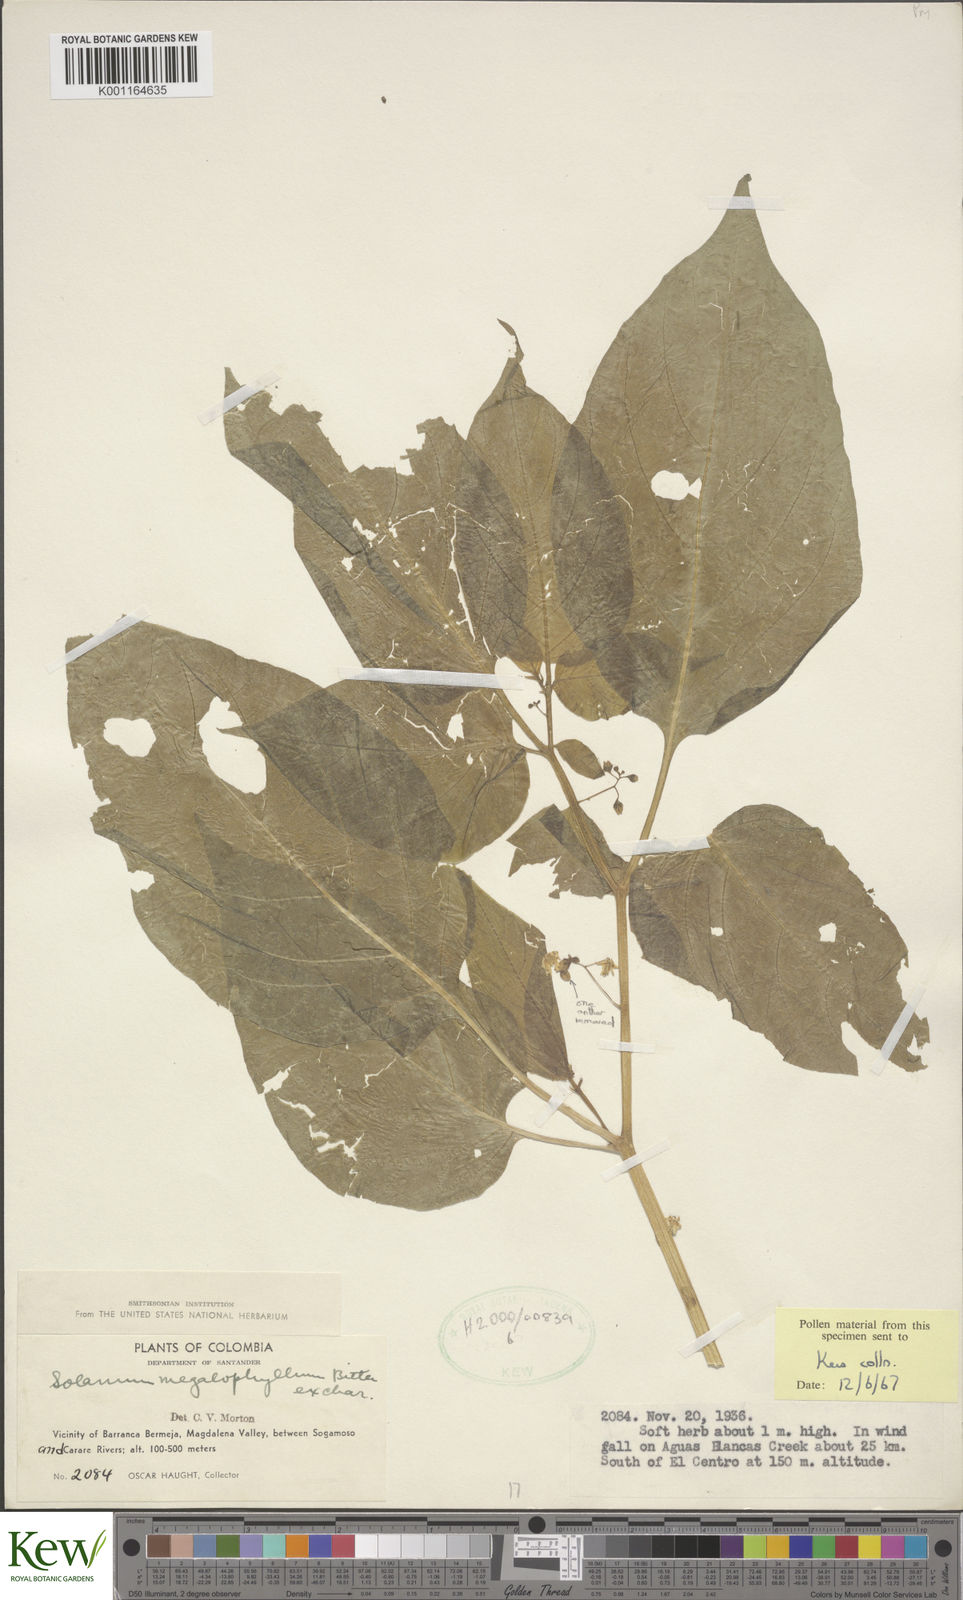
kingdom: Plantae
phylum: Tracheophyta
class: Magnoliopsida
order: Solanales
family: Solanaceae
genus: Solanum
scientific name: Solanum macrotonum
